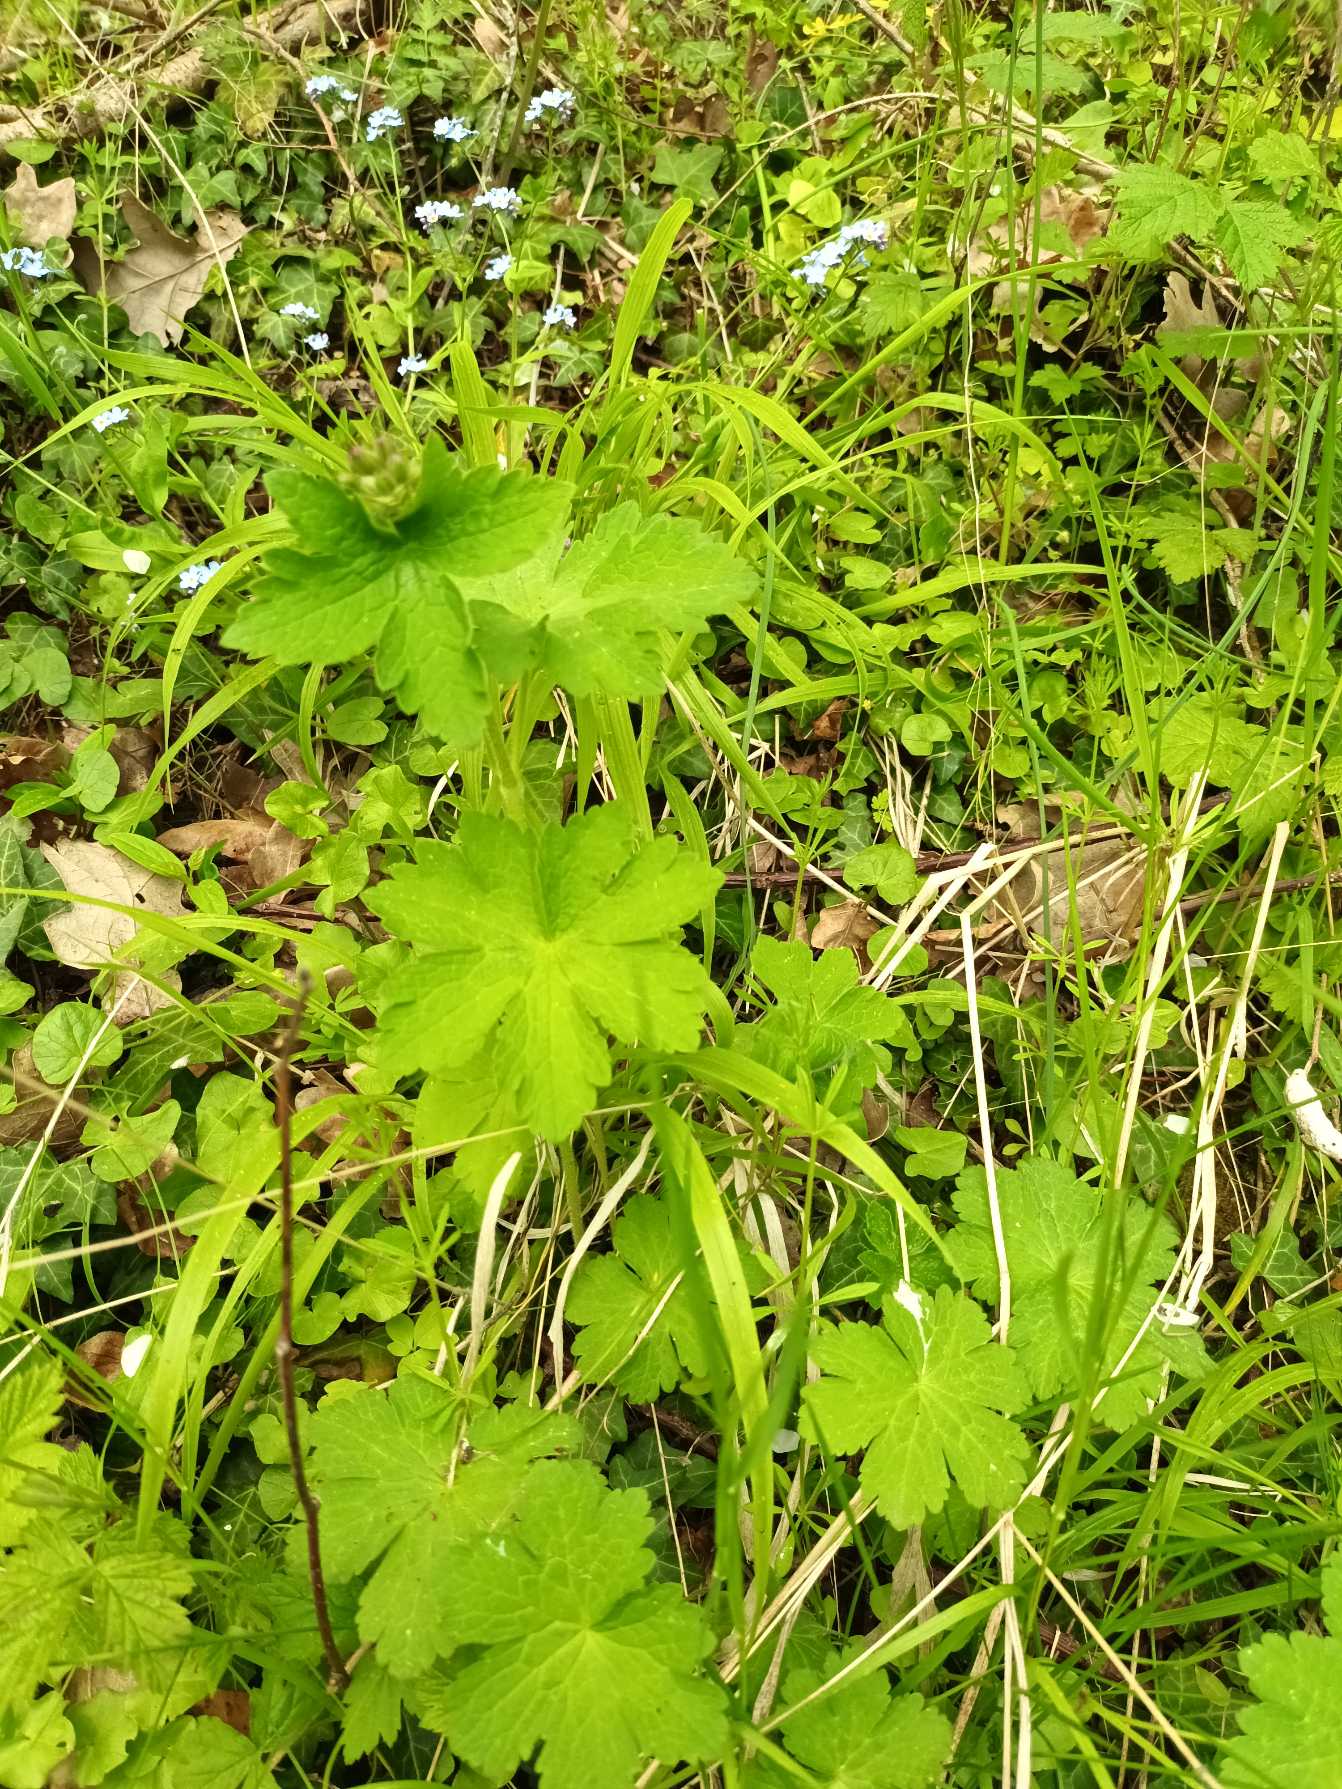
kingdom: Plantae
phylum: Tracheophyta
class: Magnoliopsida
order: Geraniales
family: Geraniaceae
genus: Geranium
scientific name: Geranium sylvaticum
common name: Skov-storkenæb
